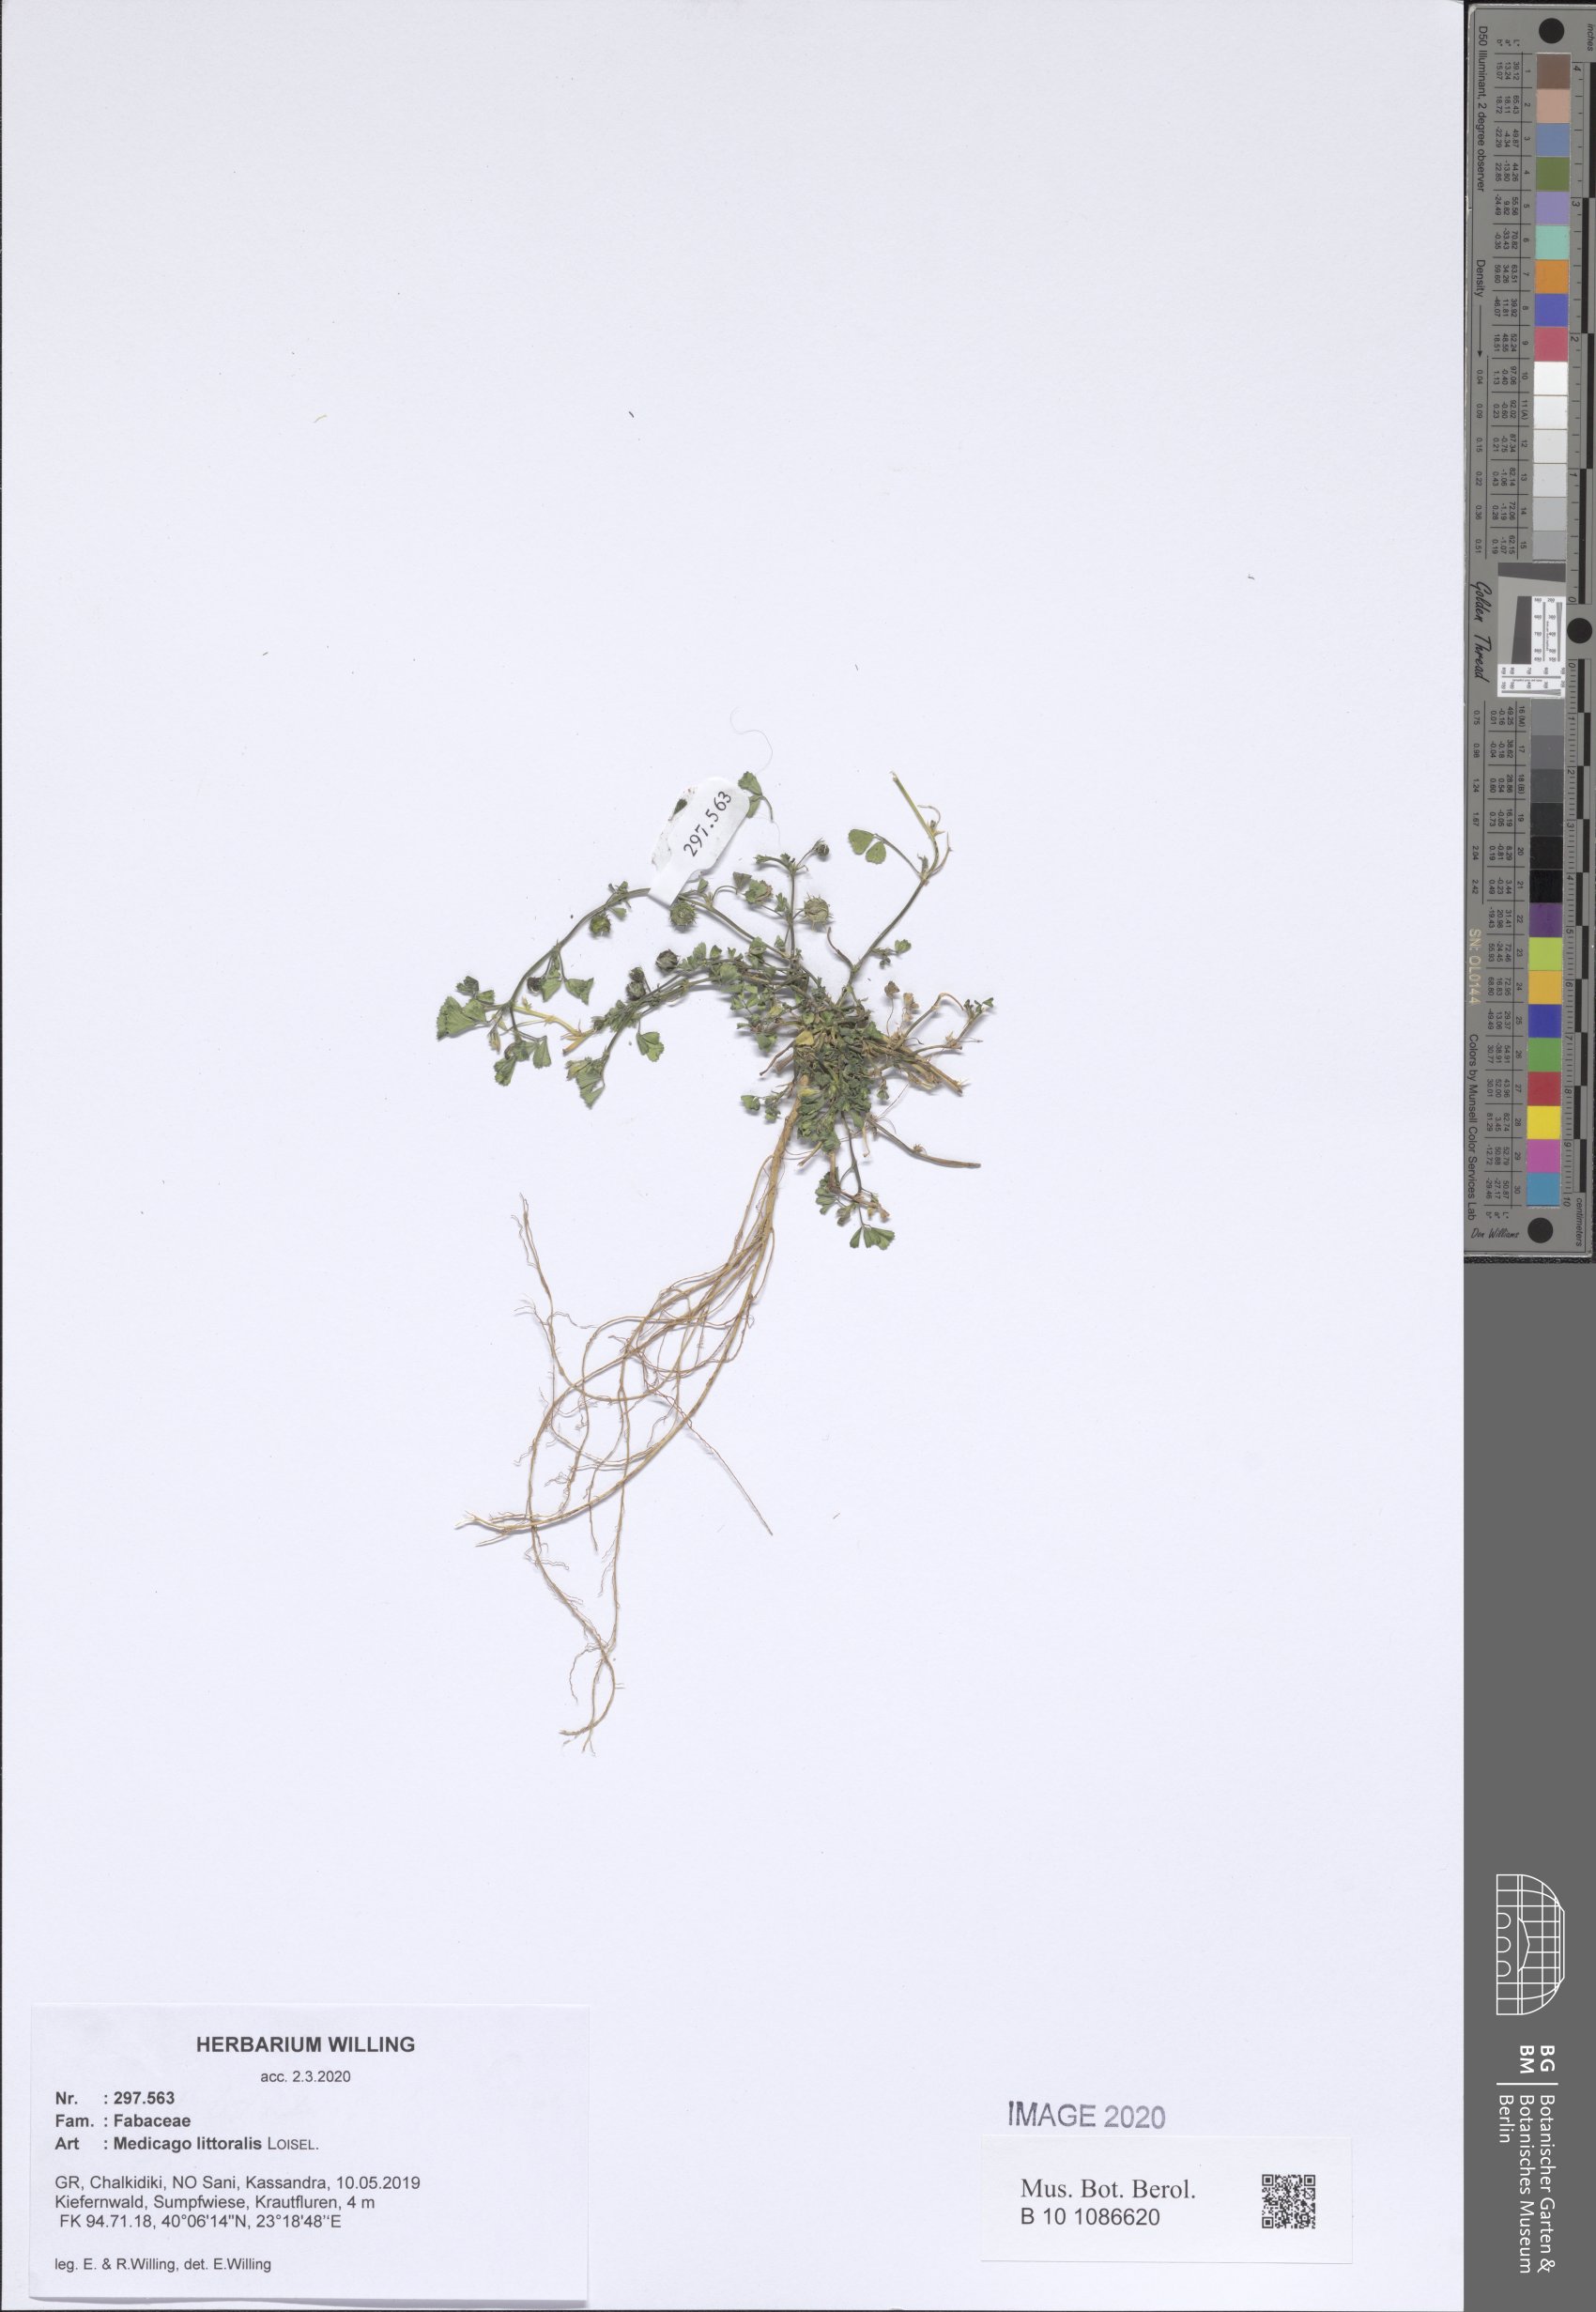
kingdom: Plantae
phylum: Tracheophyta
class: Magnoliopsida
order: Fabales
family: Fabaceae
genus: Medicago
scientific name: Medicago littoralis
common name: Shore medick
